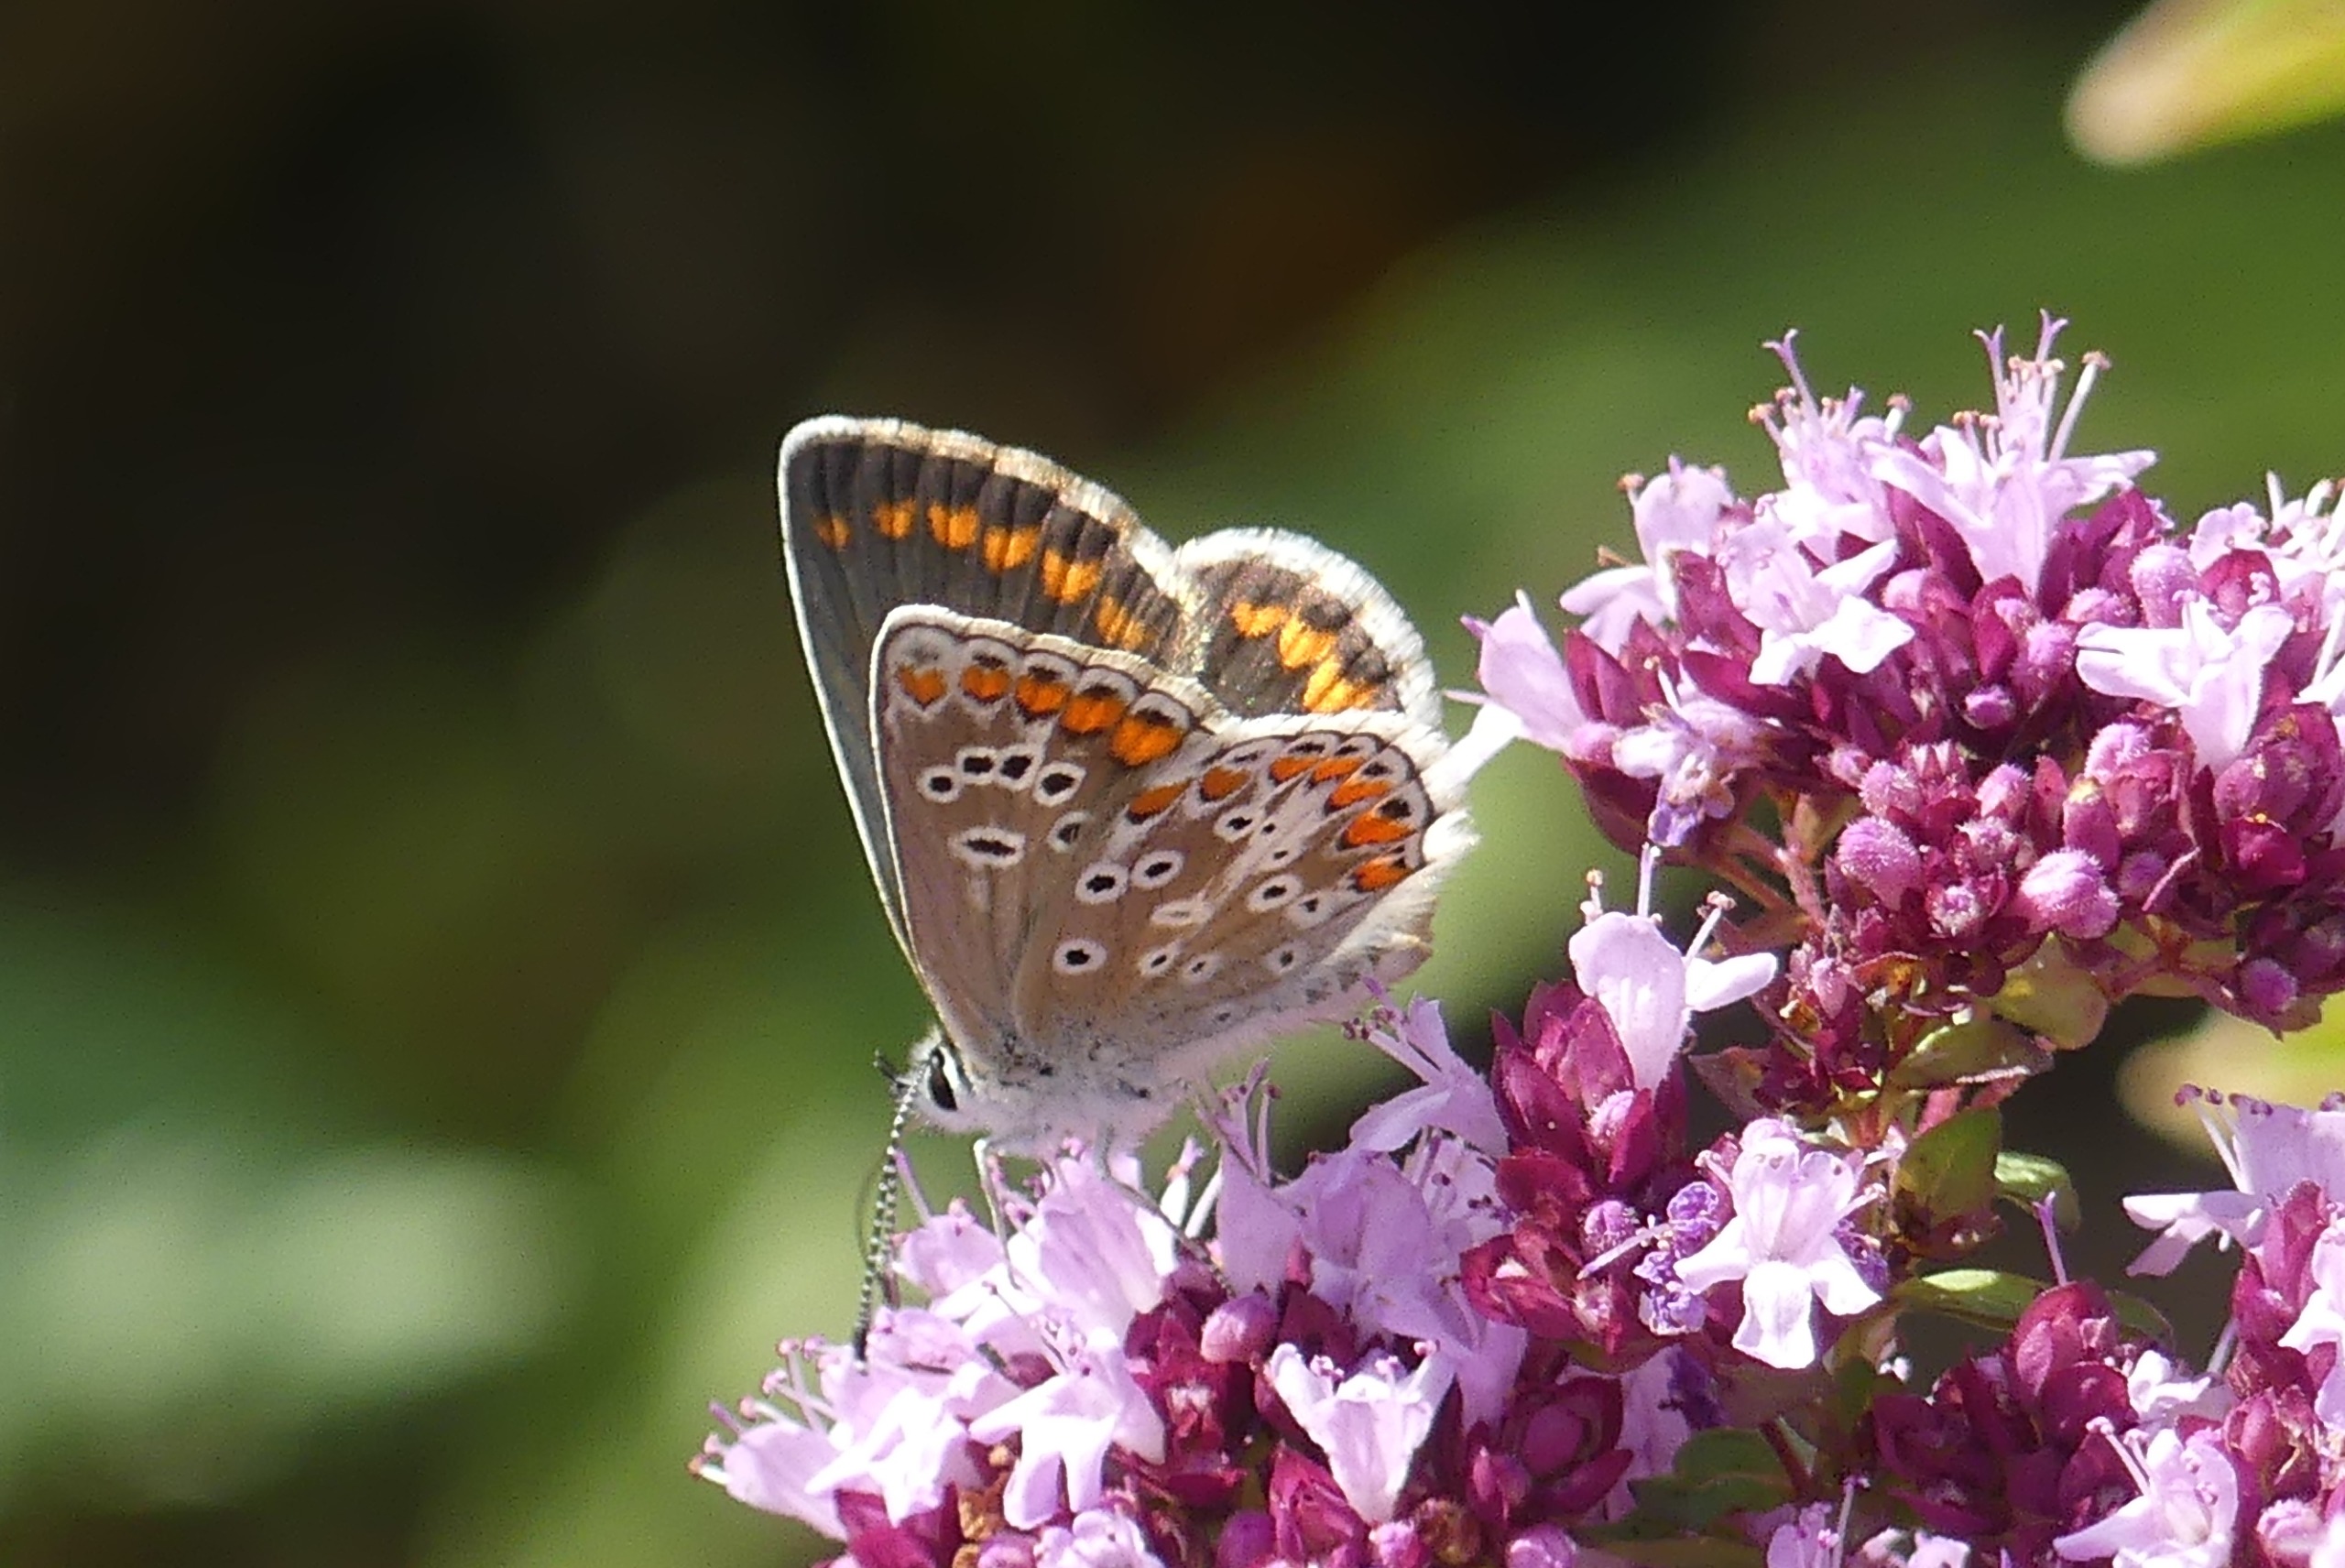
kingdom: Animalia
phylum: Arthropoda
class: Insecta
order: Lepidoptera
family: Lycaenidae
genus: Aricia
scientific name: Aricia agestis
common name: Rødplettet blåfugl
